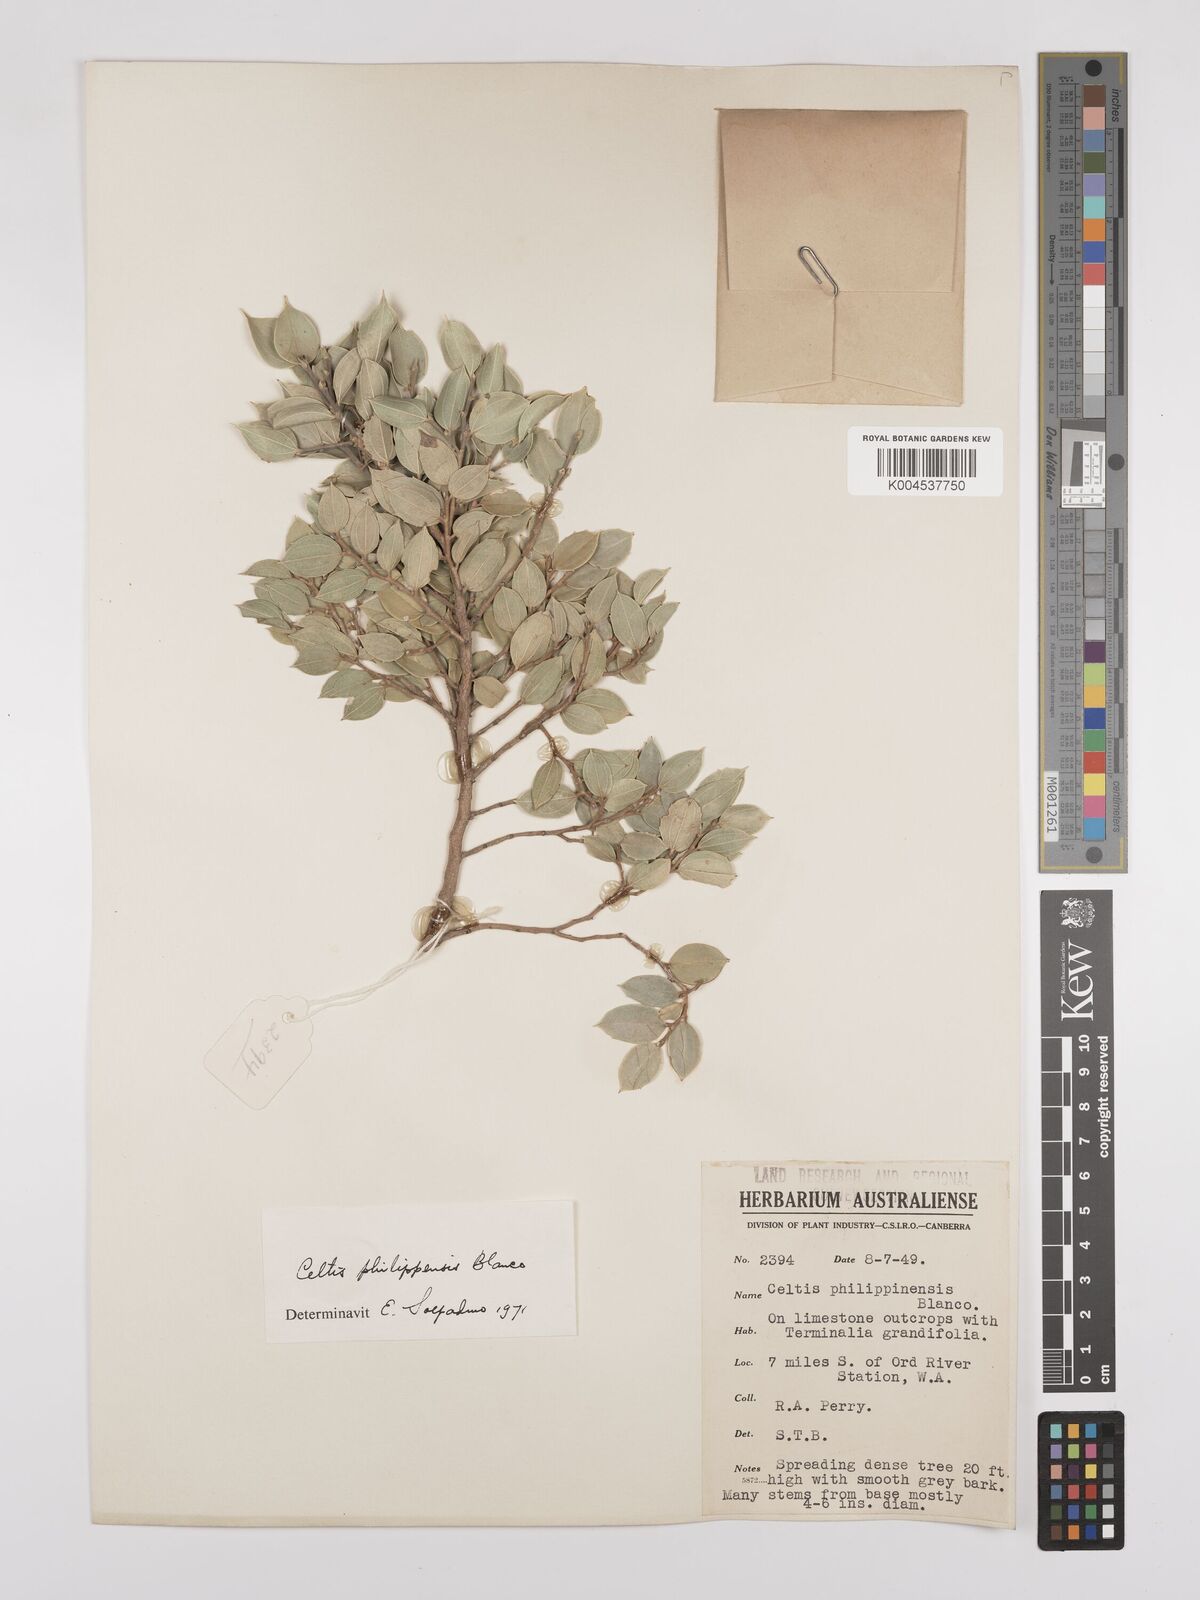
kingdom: Plantae
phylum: Tracheophyta
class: Magnoliopsida
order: Rosales
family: Cannabaceae
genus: Celtis
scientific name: Celtis philippensis
